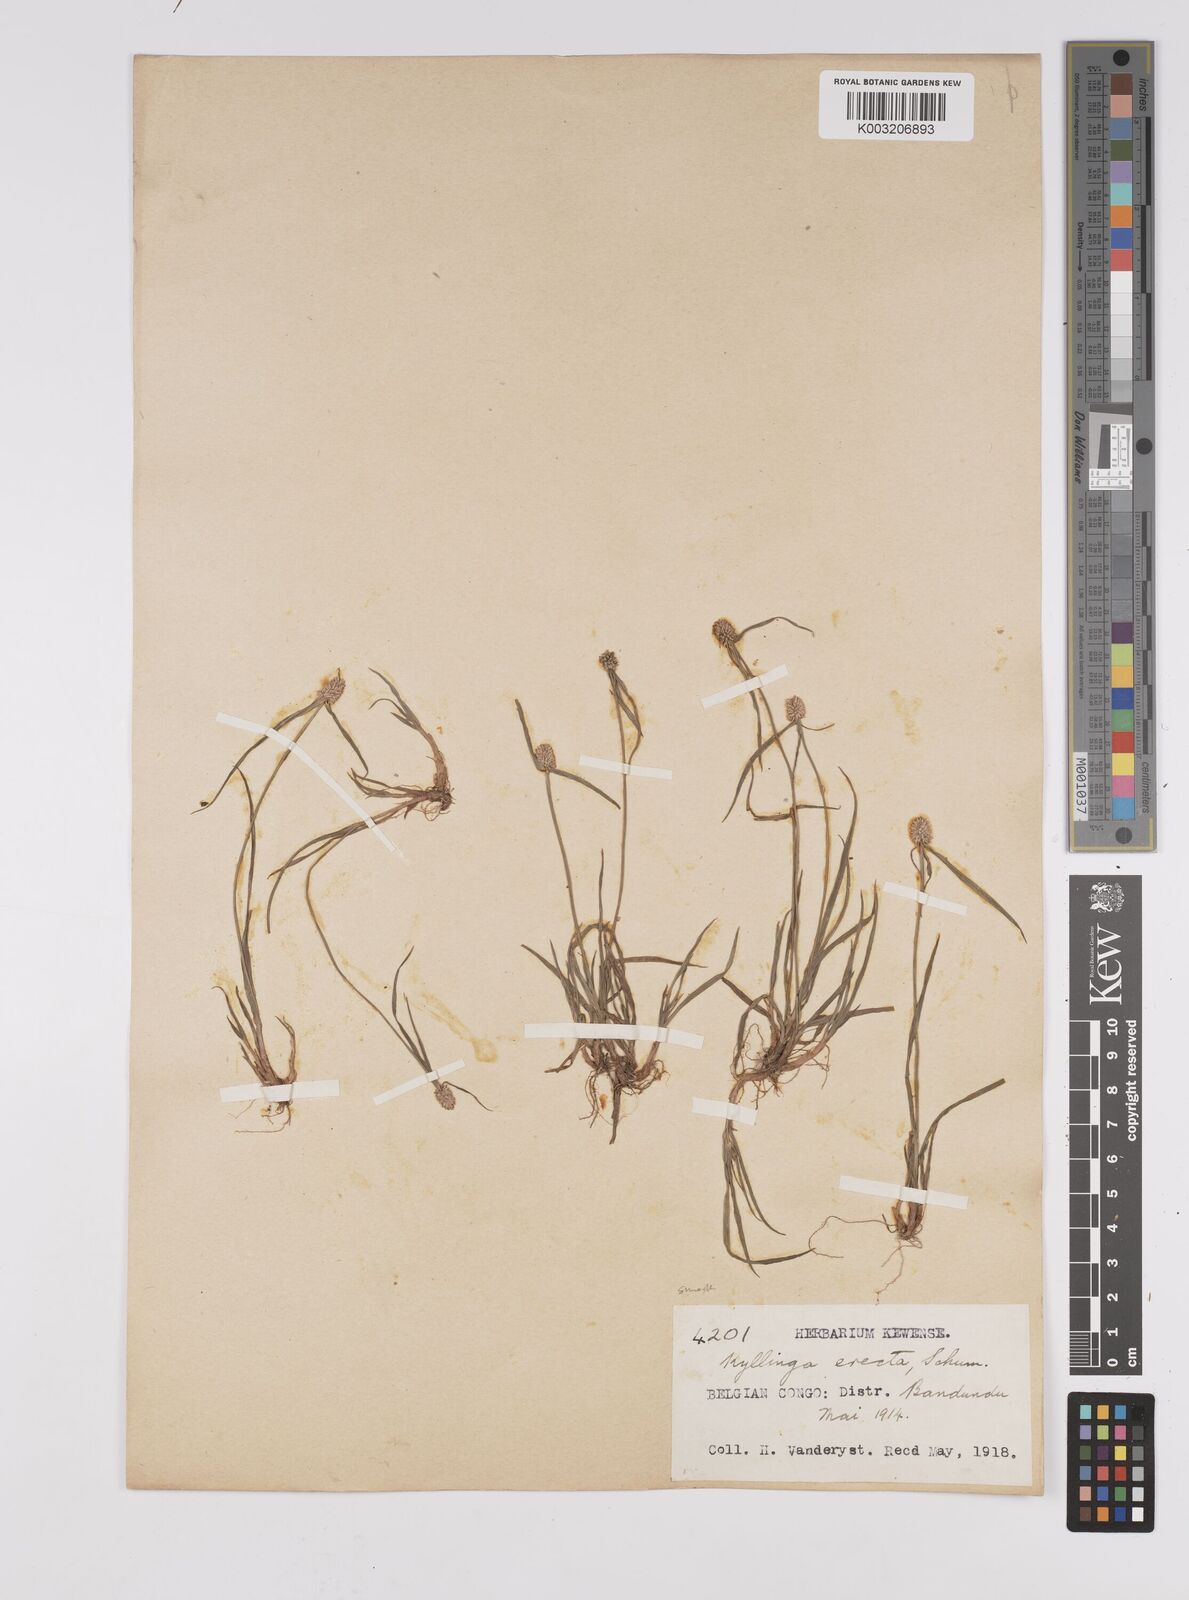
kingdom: Plantae
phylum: Tracheophyta
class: Liliopsida
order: Poales
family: Cyperaceae
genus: Cyperus
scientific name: Cyperus odoratus
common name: Fragrant flatsedge
